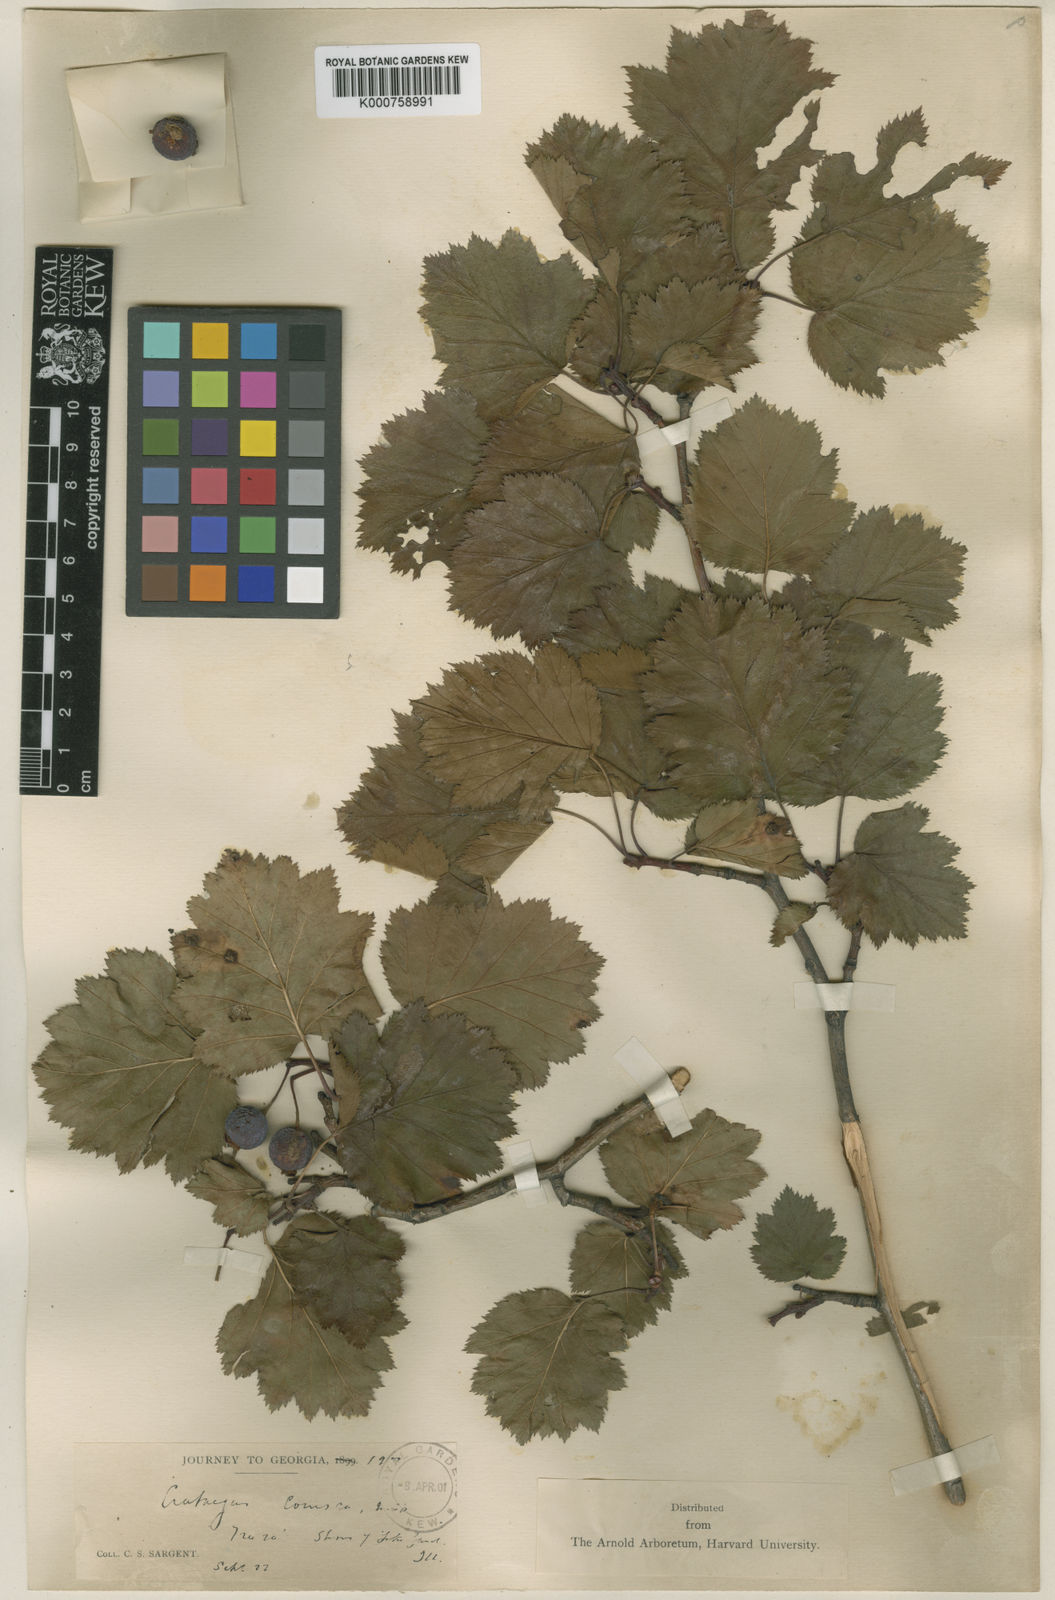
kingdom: Plantae
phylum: Tracheophyta
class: Magnoliopsida
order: Rosales
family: Rosaceae
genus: Crataegus
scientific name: Crataegus corusca
